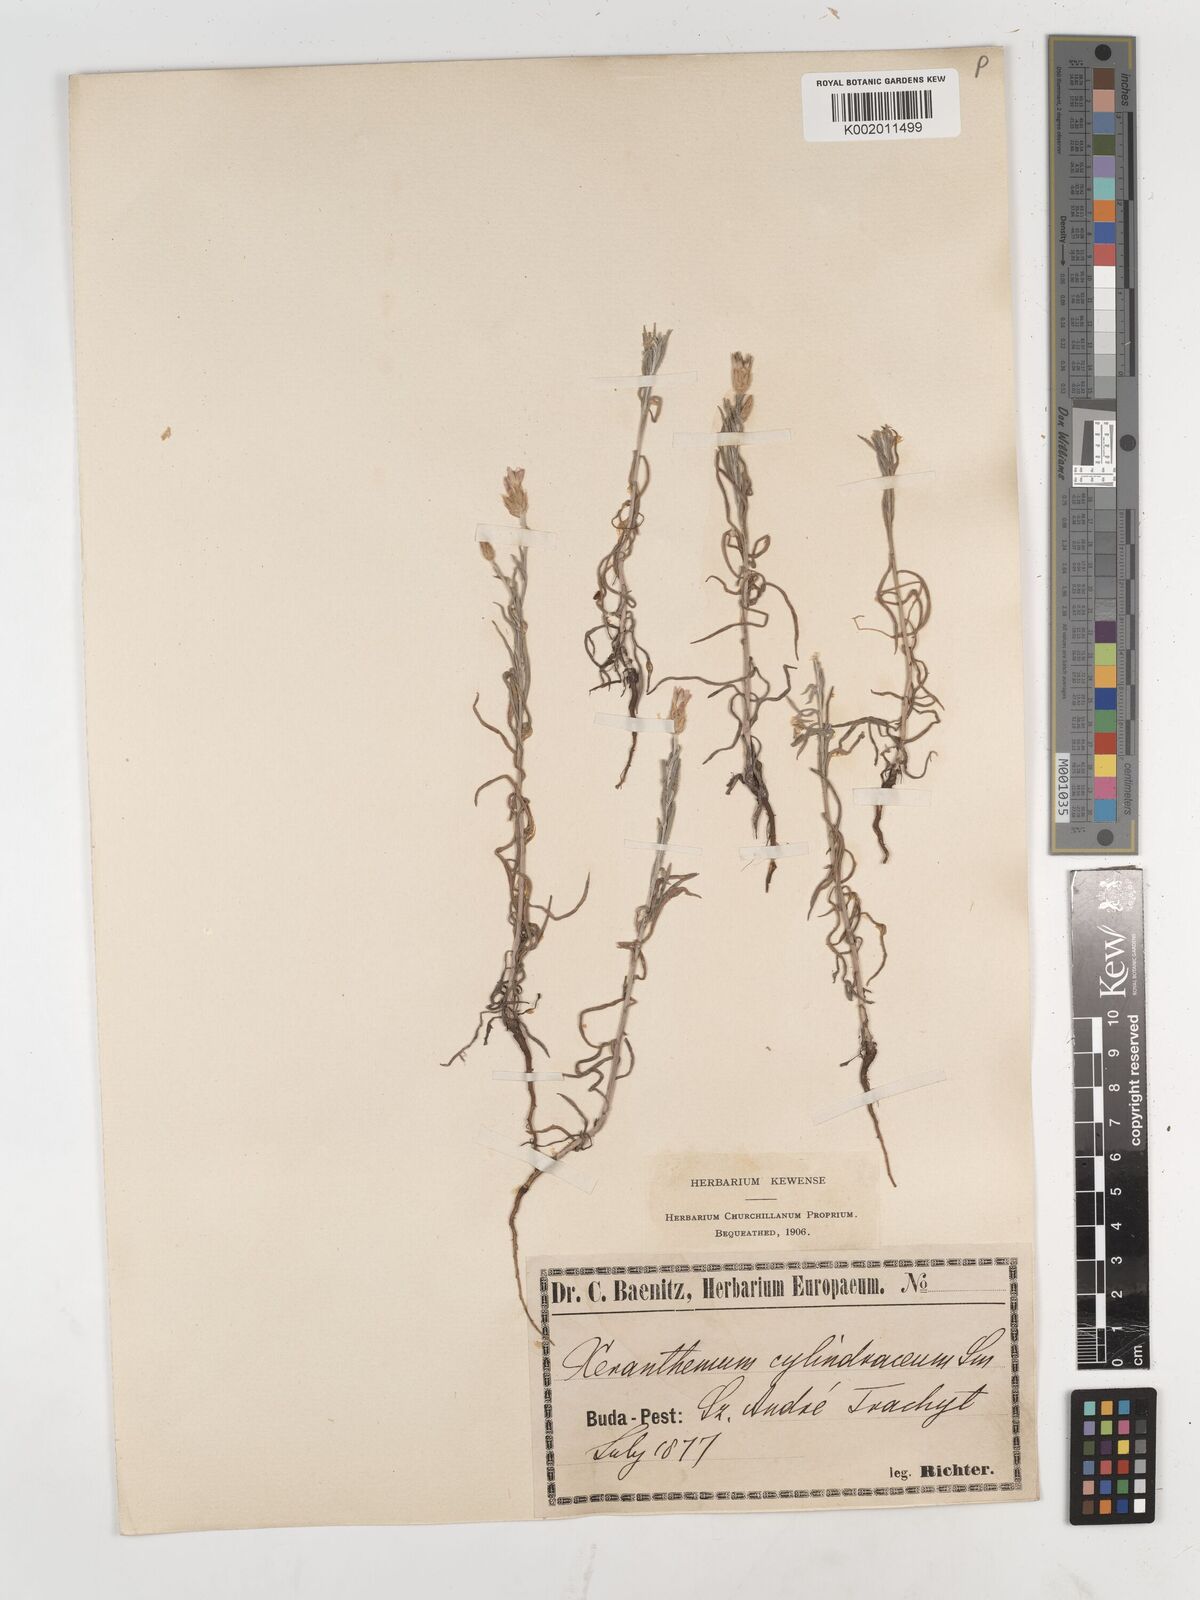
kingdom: Plantae
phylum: Tracheophyta
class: Magnoliopsida
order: Asterales
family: Asteraceae
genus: Xeranthemum
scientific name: Xeranthemum cylindraceum
